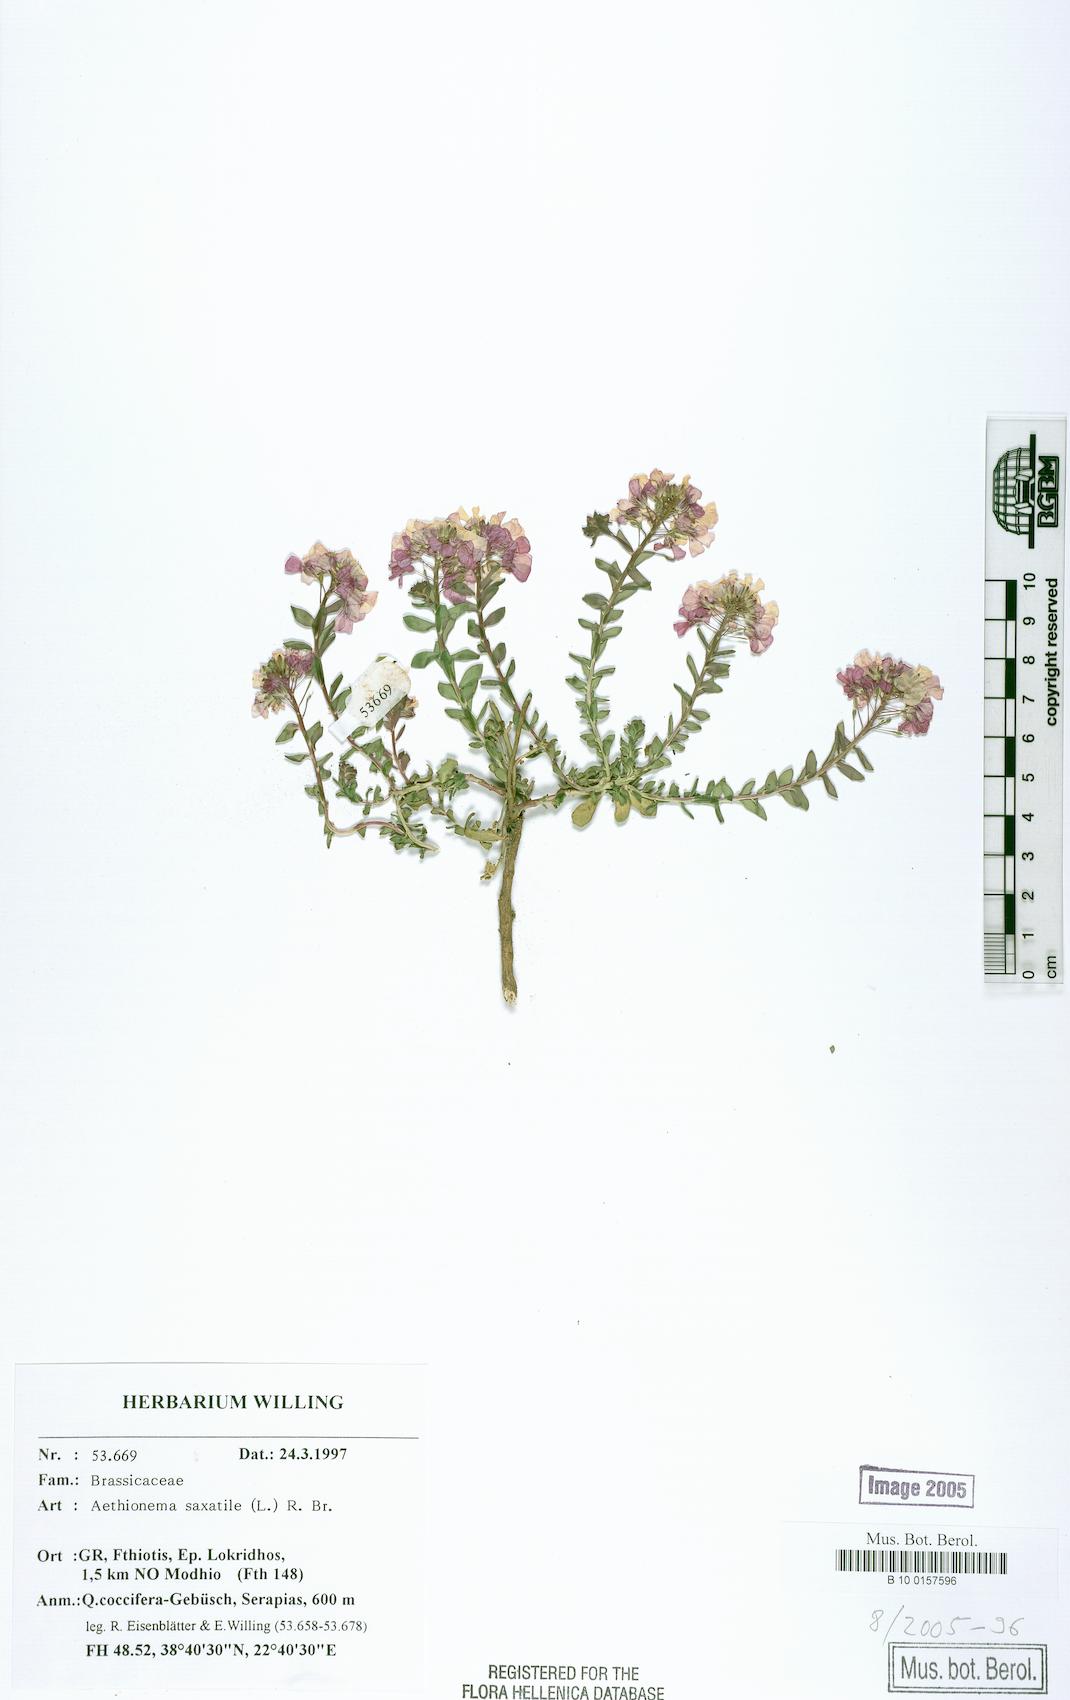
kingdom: Plantae
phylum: Tracheophyta
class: Magnoliopsida
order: Brassicales
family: Brassicaceae
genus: Aethionema
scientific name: Aethionema saxatile
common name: Burnt candytuft
